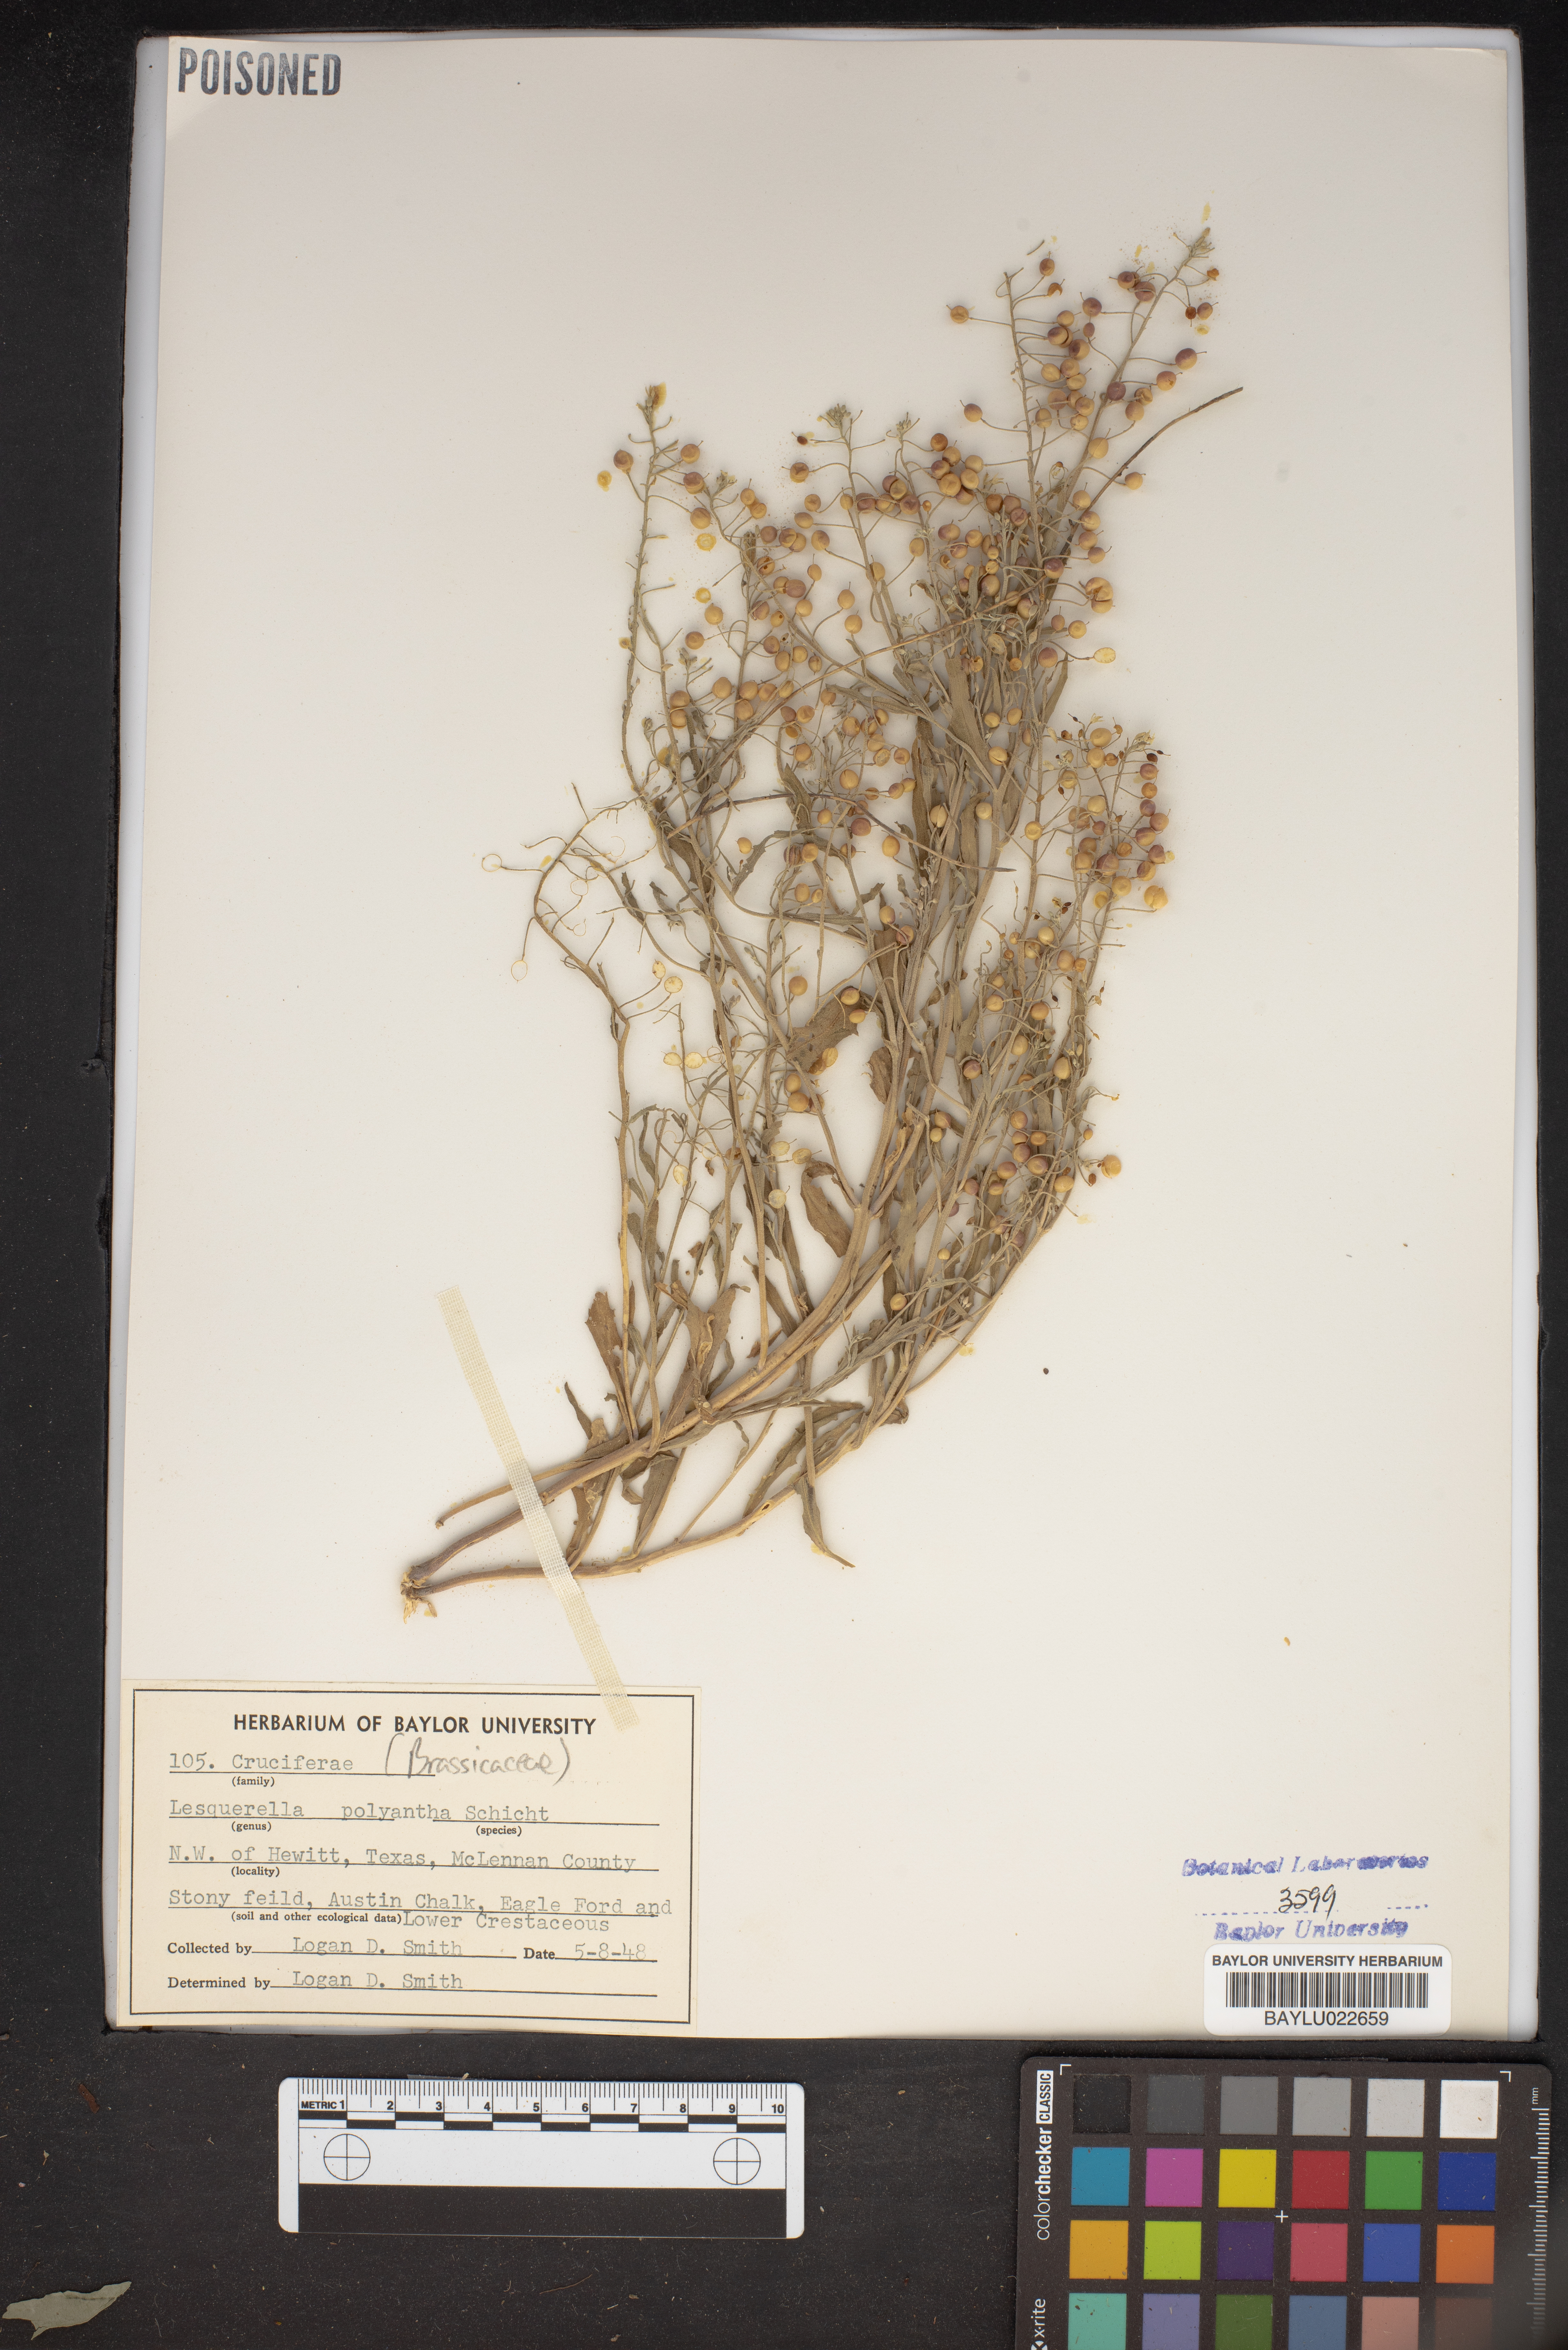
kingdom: Plantae
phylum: Tracheophyta
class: Magnoliopsida
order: Brassicales
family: Brassicaceae
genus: Physaria
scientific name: Physaria gracilis
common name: Spreading bladderpod
